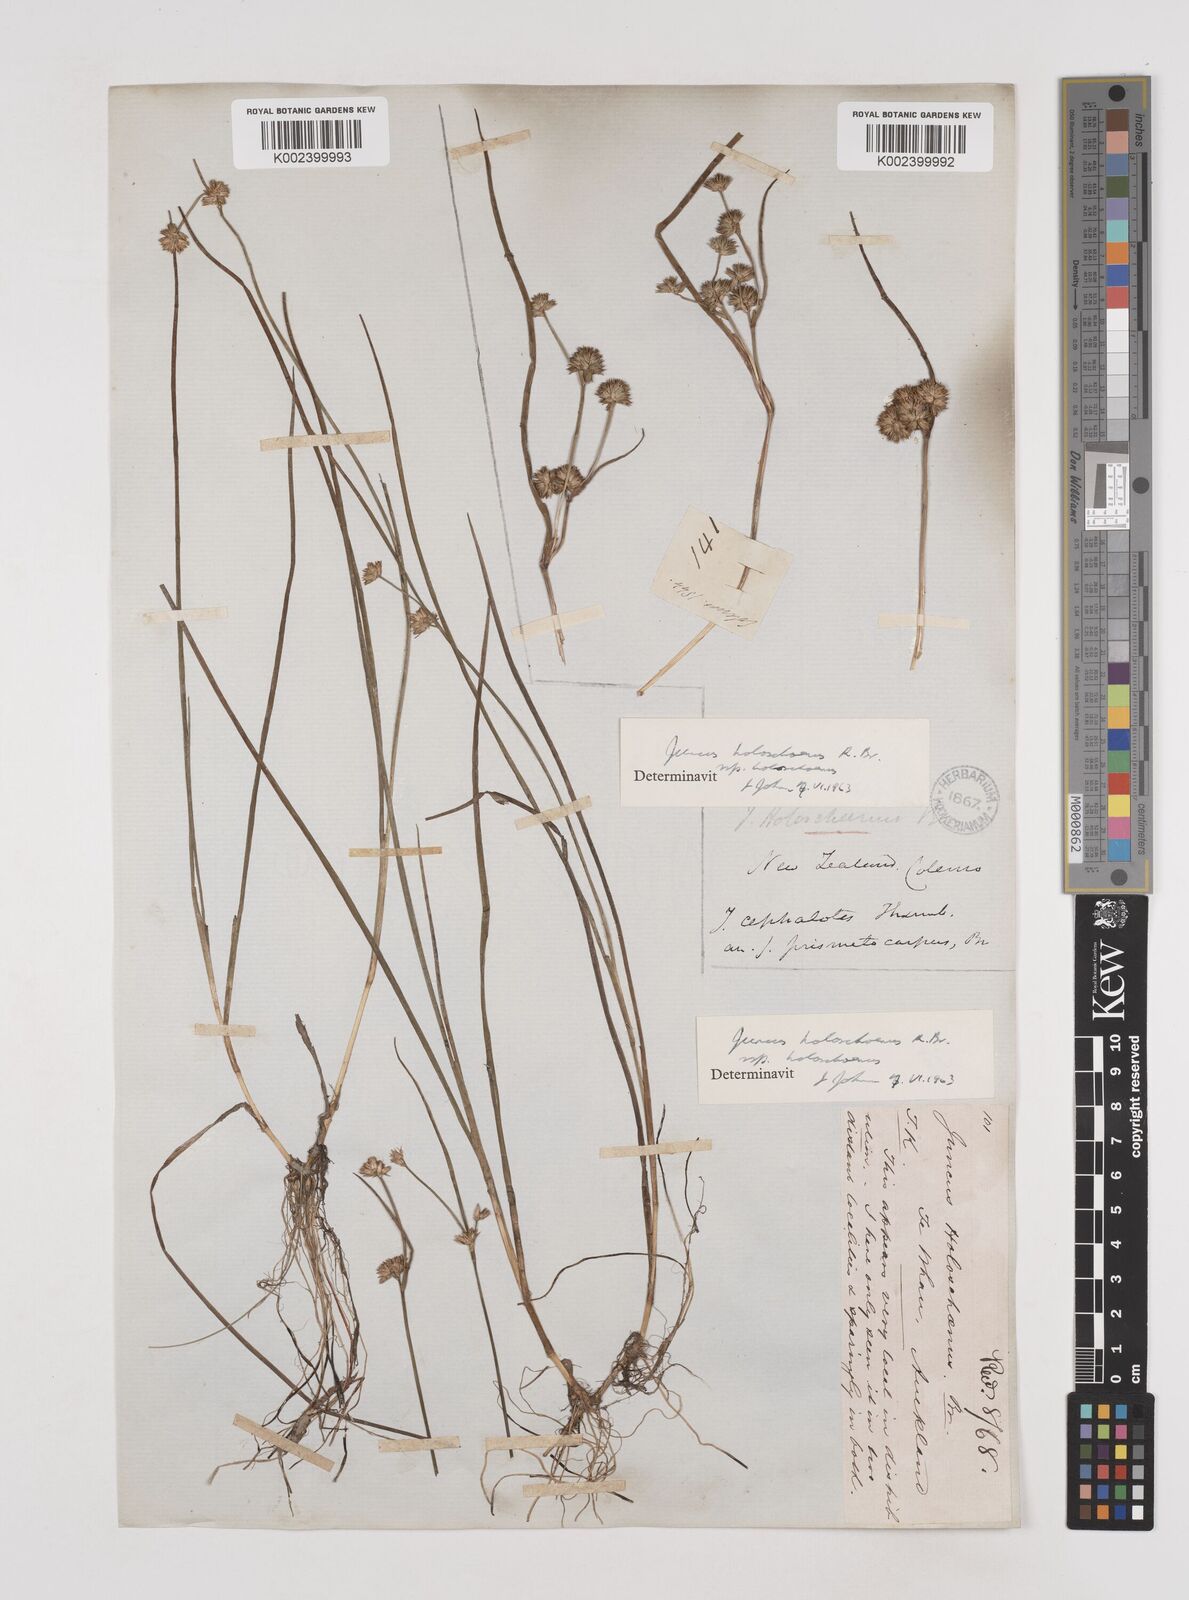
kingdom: Plantae
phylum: Tracheophyta
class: Liliopsida
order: Poales
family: Juncaceae
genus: Juncus
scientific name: Juncus holoschoenus
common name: Joint-leaf rush
